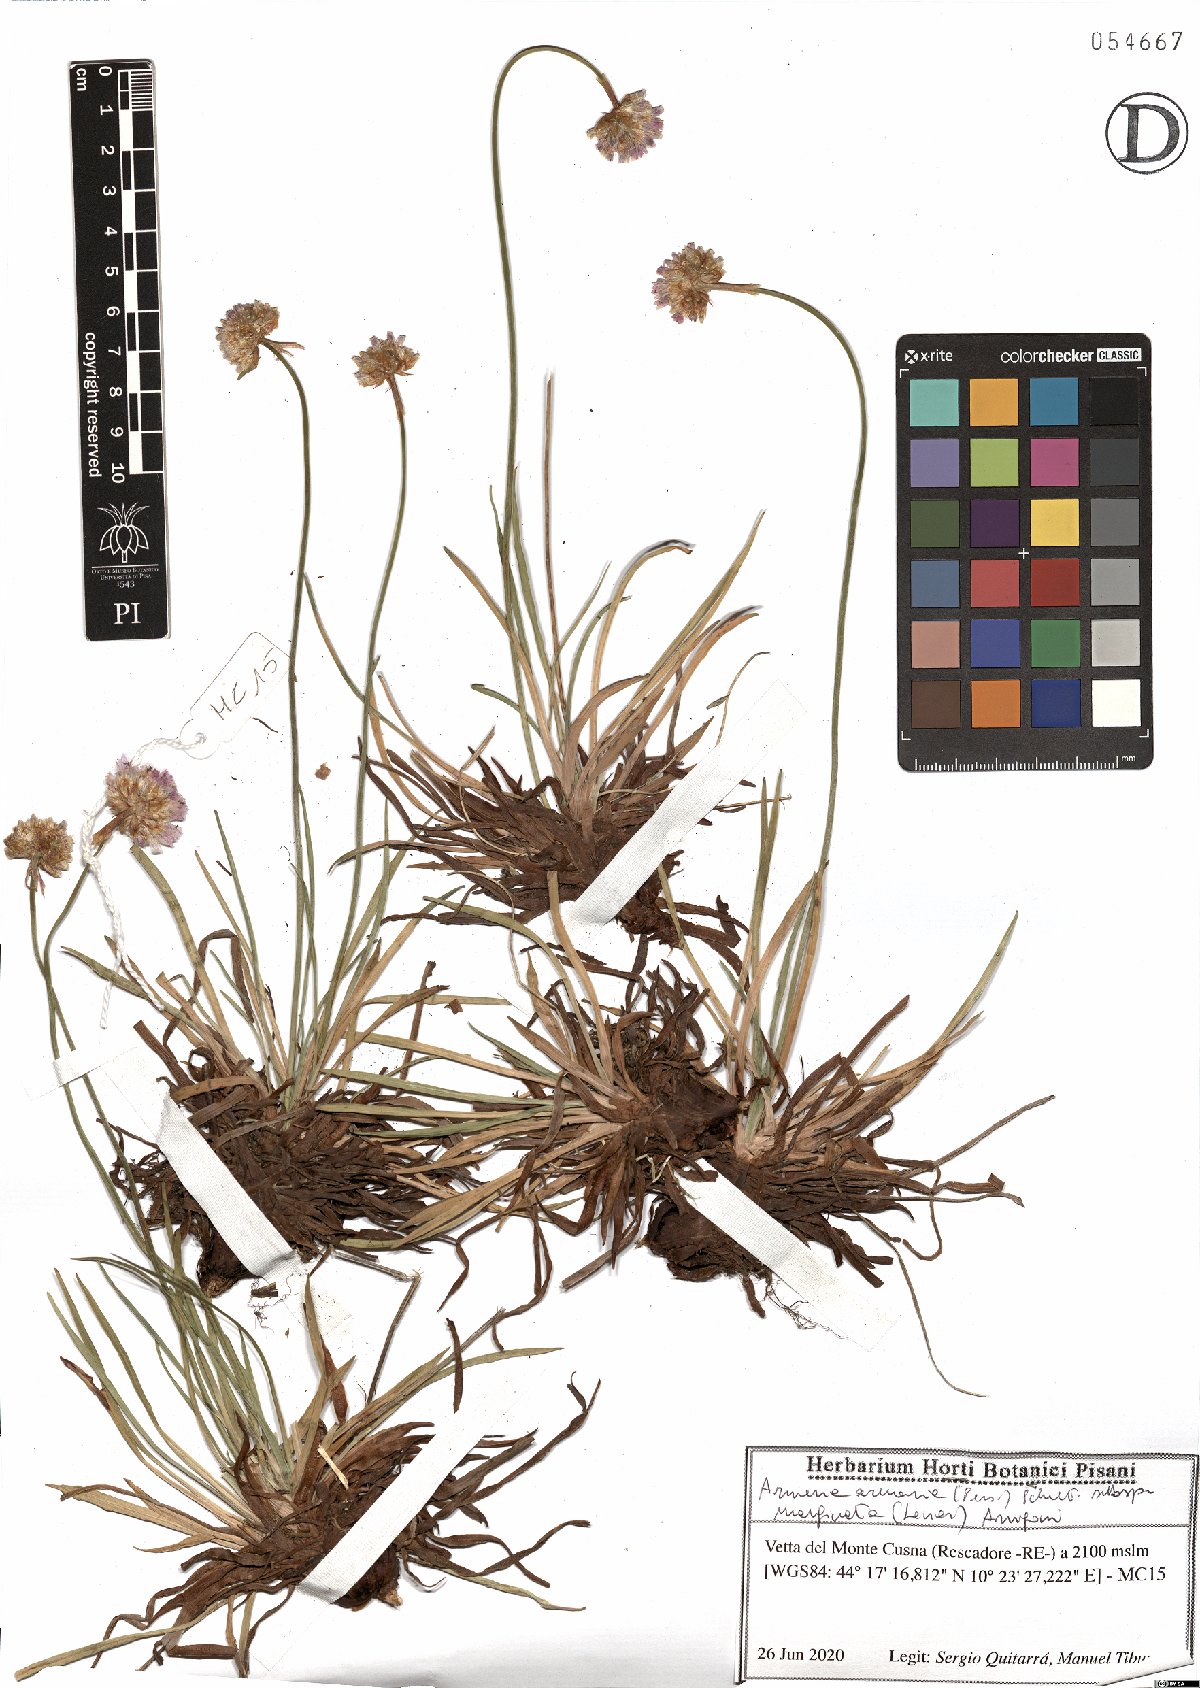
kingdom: Plantae
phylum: Tracheophyta
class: Magnoliopsida
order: Caryophyllales
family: Plumbaginaceae
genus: Armeria
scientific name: Armeria arenaria
